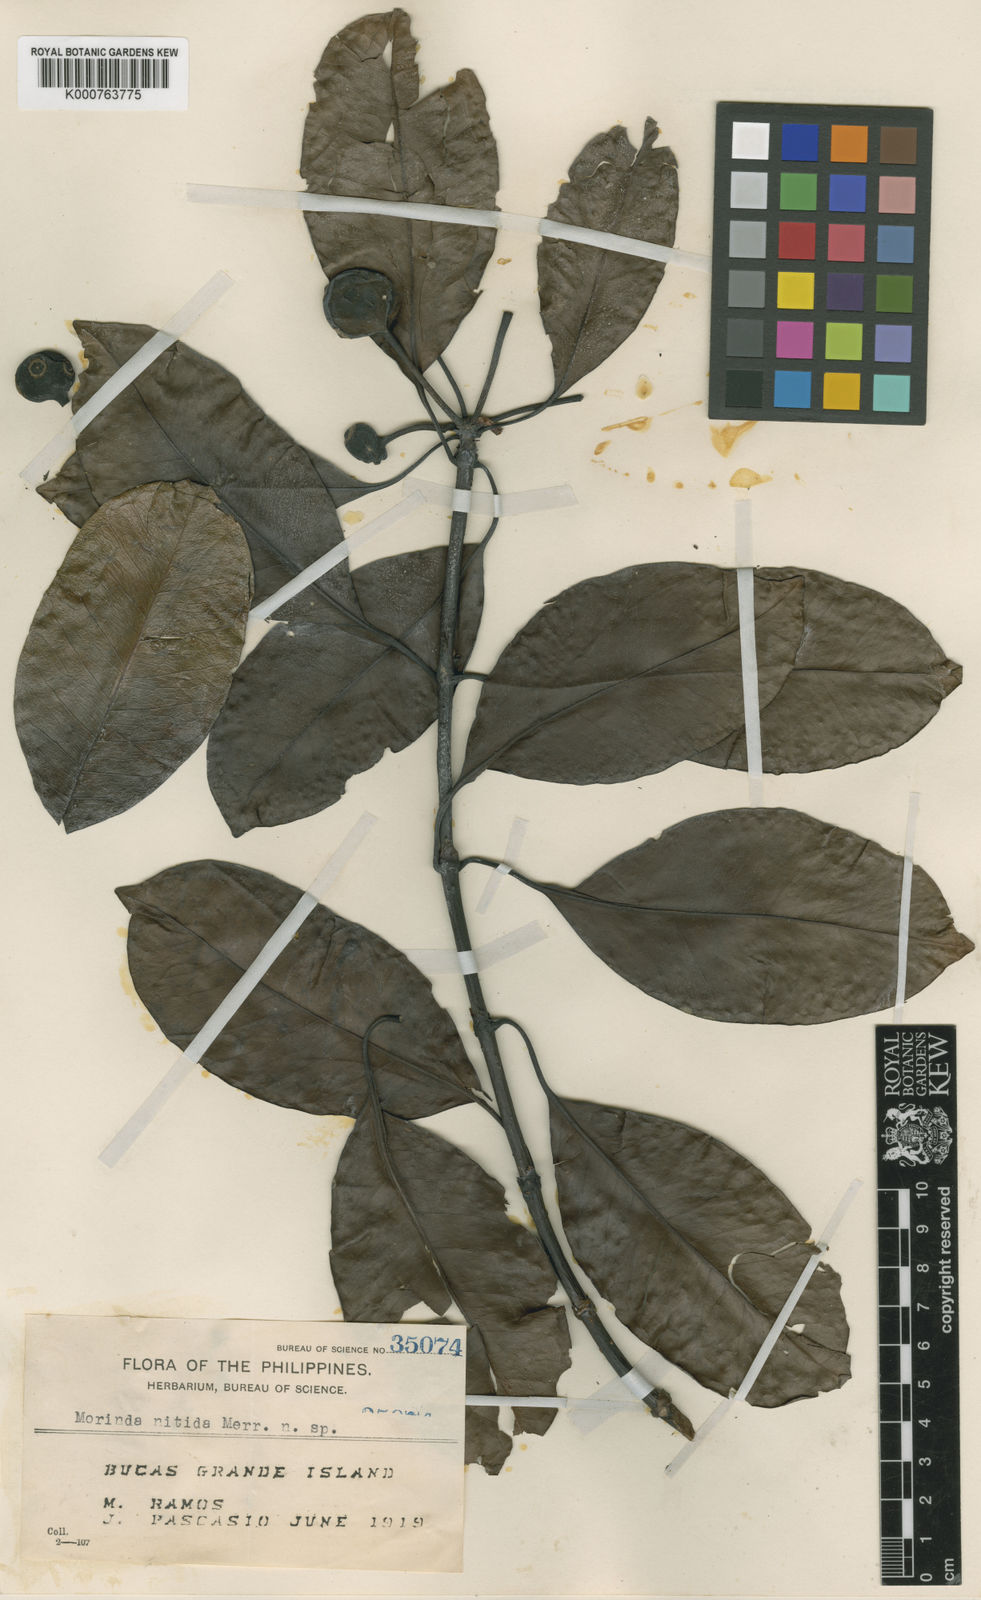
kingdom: Plantae
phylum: Tracheophyta
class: Magnoliopsida
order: Gentianales
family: Rubiaceae
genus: Gynochthodes
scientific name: Gynochthodes nitida
